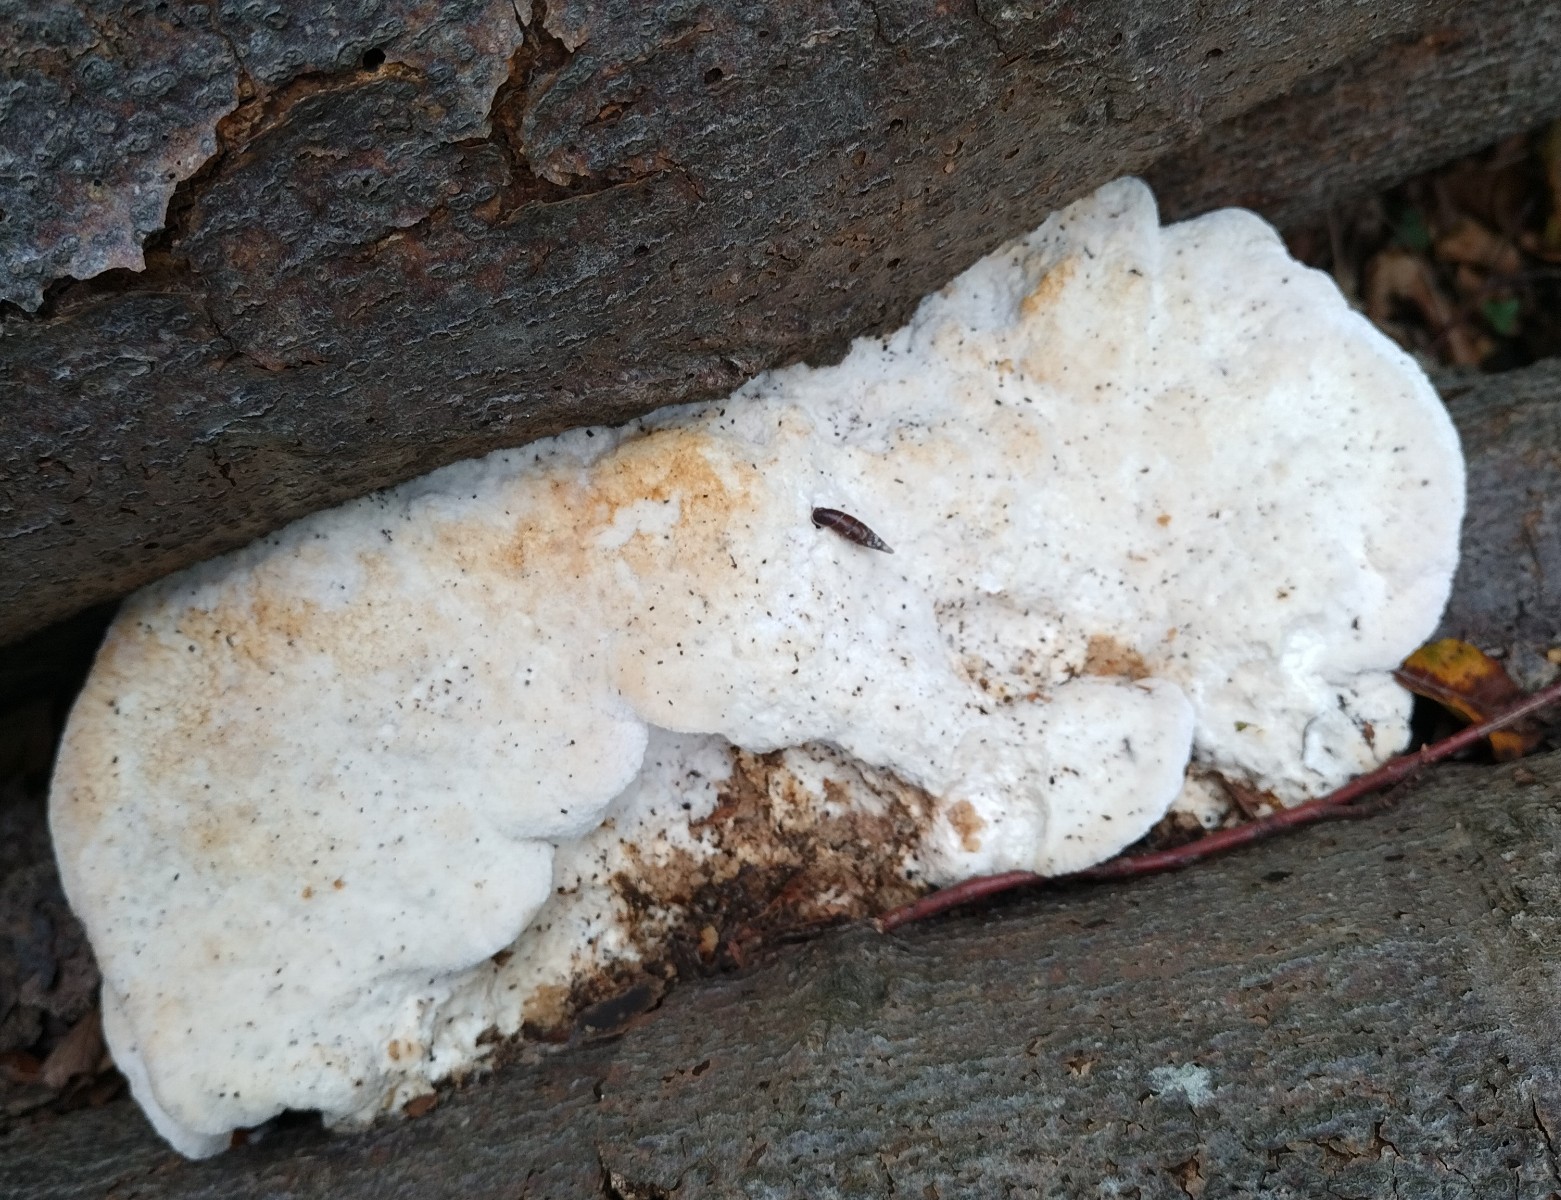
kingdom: Fungi
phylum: Basidiomycota
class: Agaricomycetes
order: Polyporales
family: Meruliaceae
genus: Pappia
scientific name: Pappia fissilis
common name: sej fedtporesvamp
